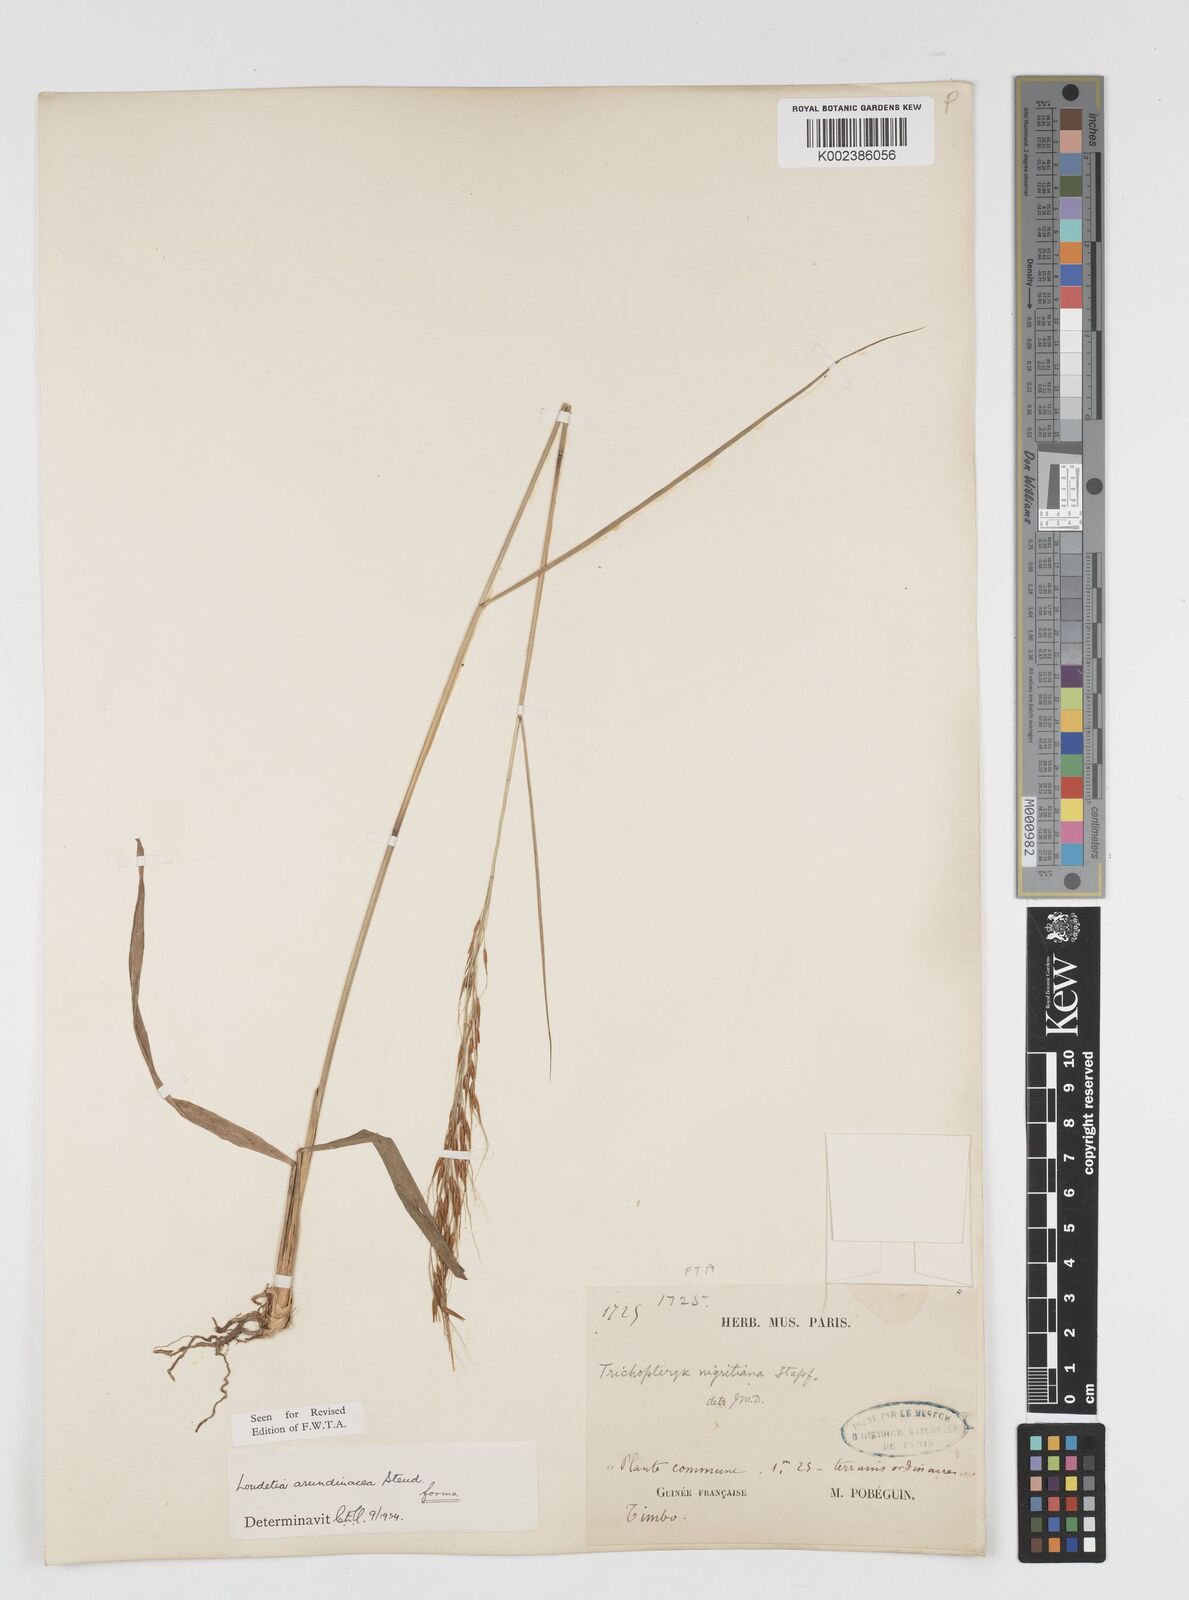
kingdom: Plantae
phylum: Tracheophyta
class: Liliopsida
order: Poales
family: Poaceae
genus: Loudetia
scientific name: Loudetia arundinacea
